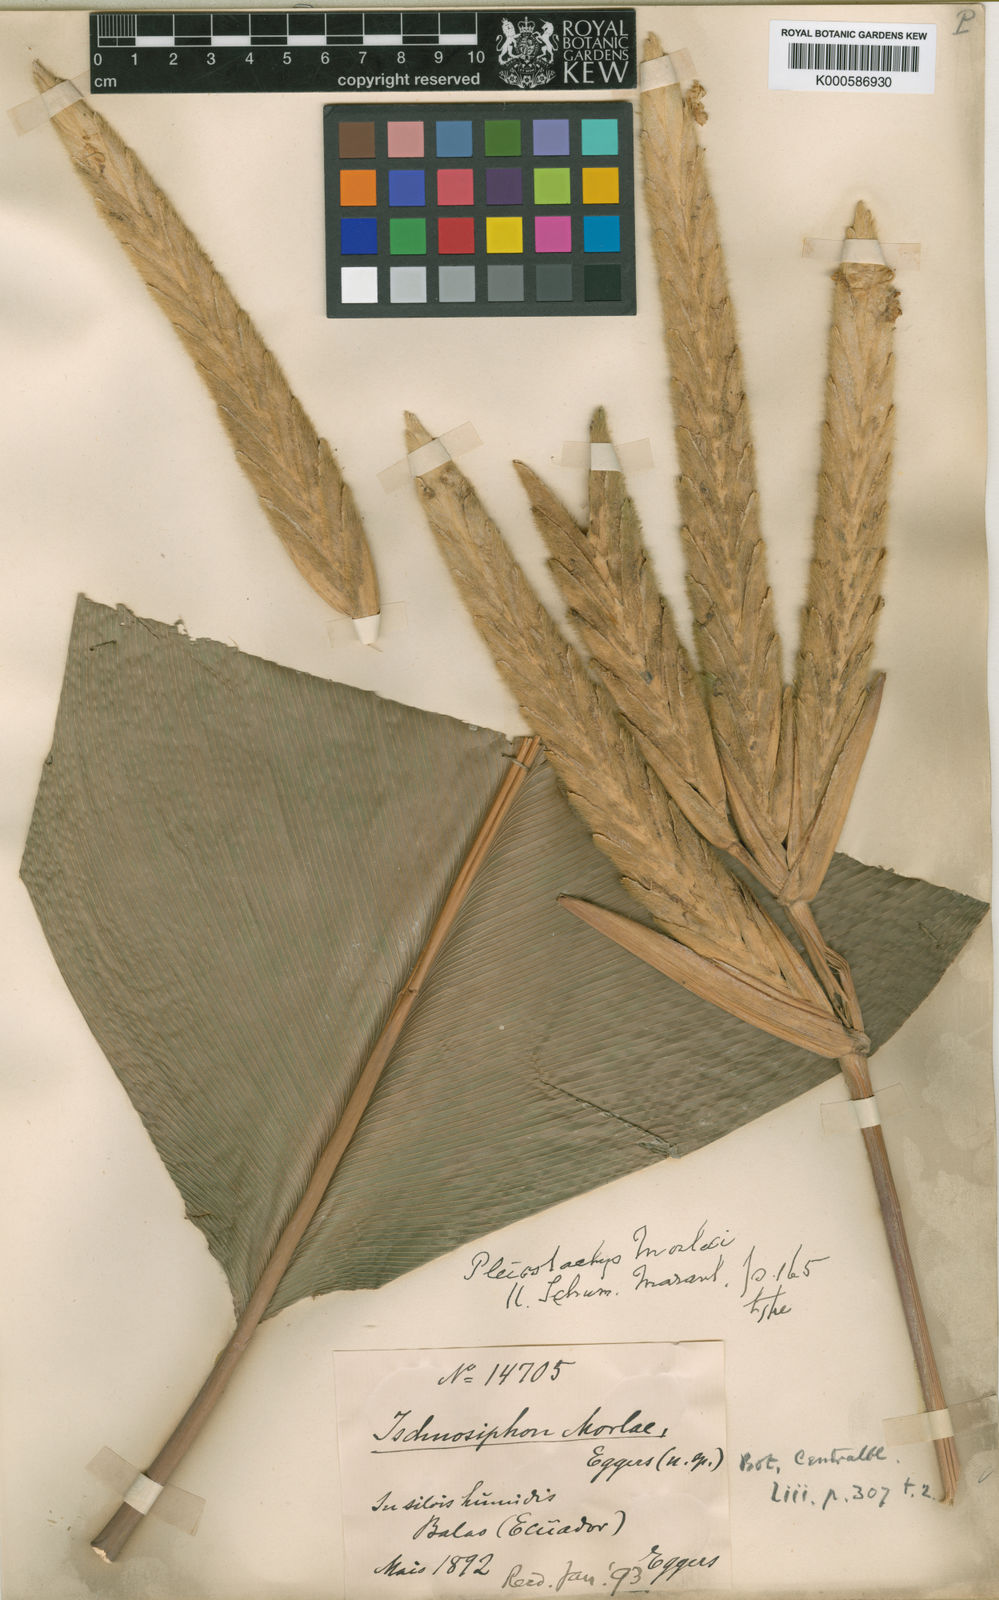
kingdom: Plantae
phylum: Tracheophyta
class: Liliopsida
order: Zingiberales
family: Marantaceae
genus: Pleiostachya
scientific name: Pleiostachya
